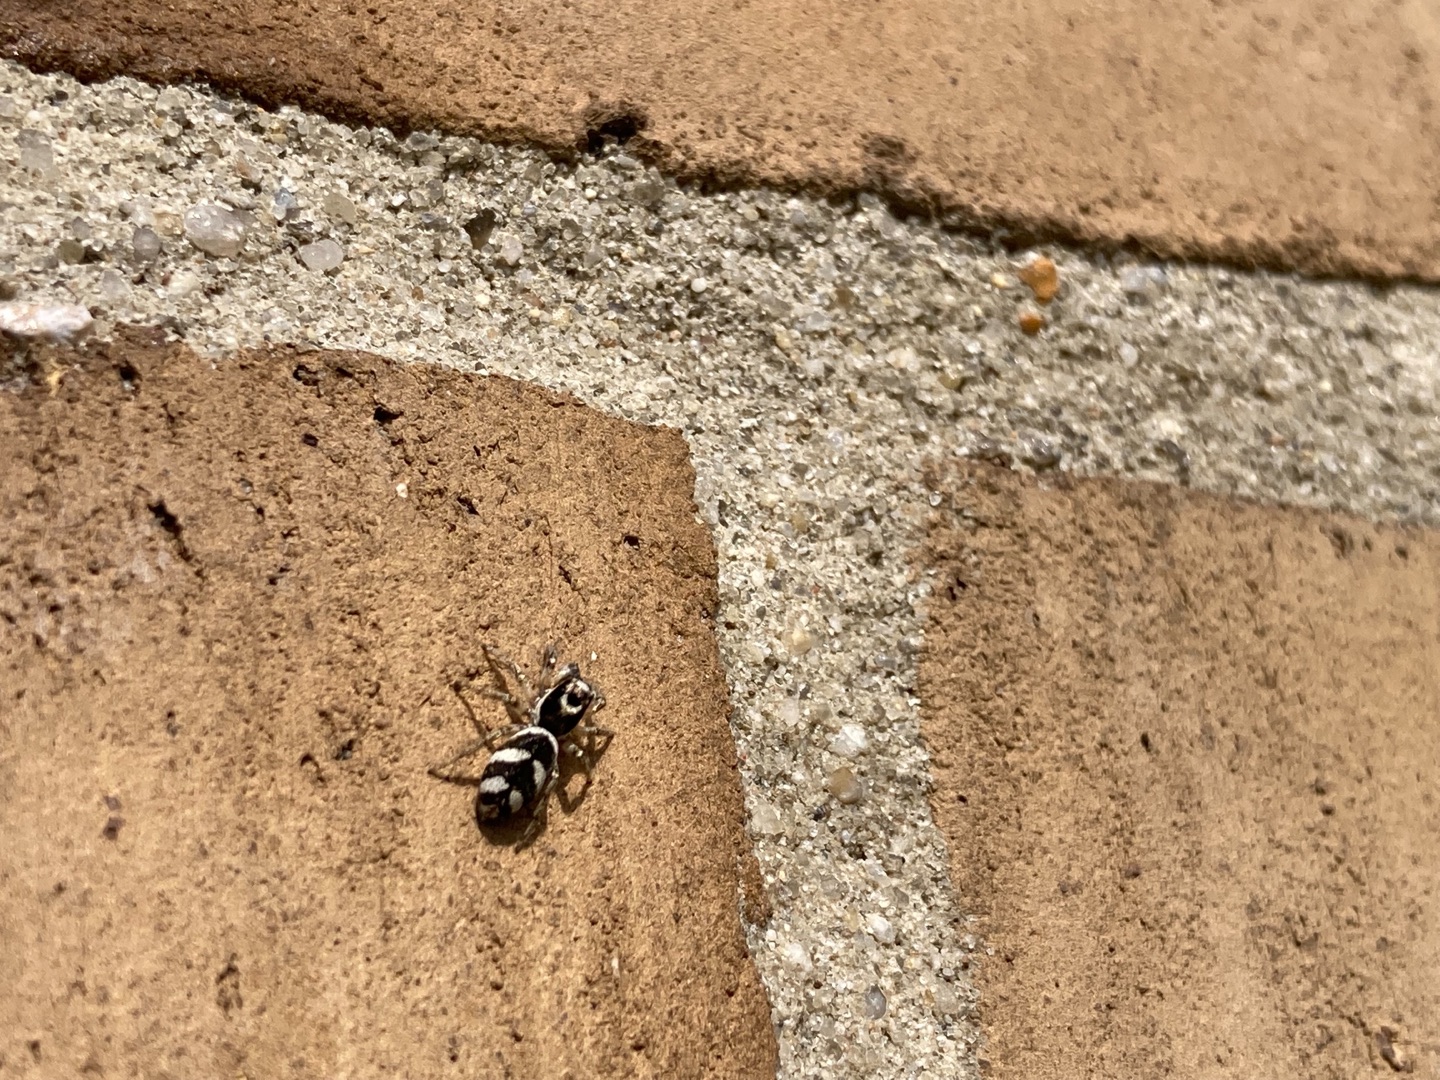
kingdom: Animalia
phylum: Arthropoda
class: Arachnida
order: Araneae
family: Salticidae
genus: Salticus
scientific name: Salticus scenicus
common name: Almindelig zebraedderkop
